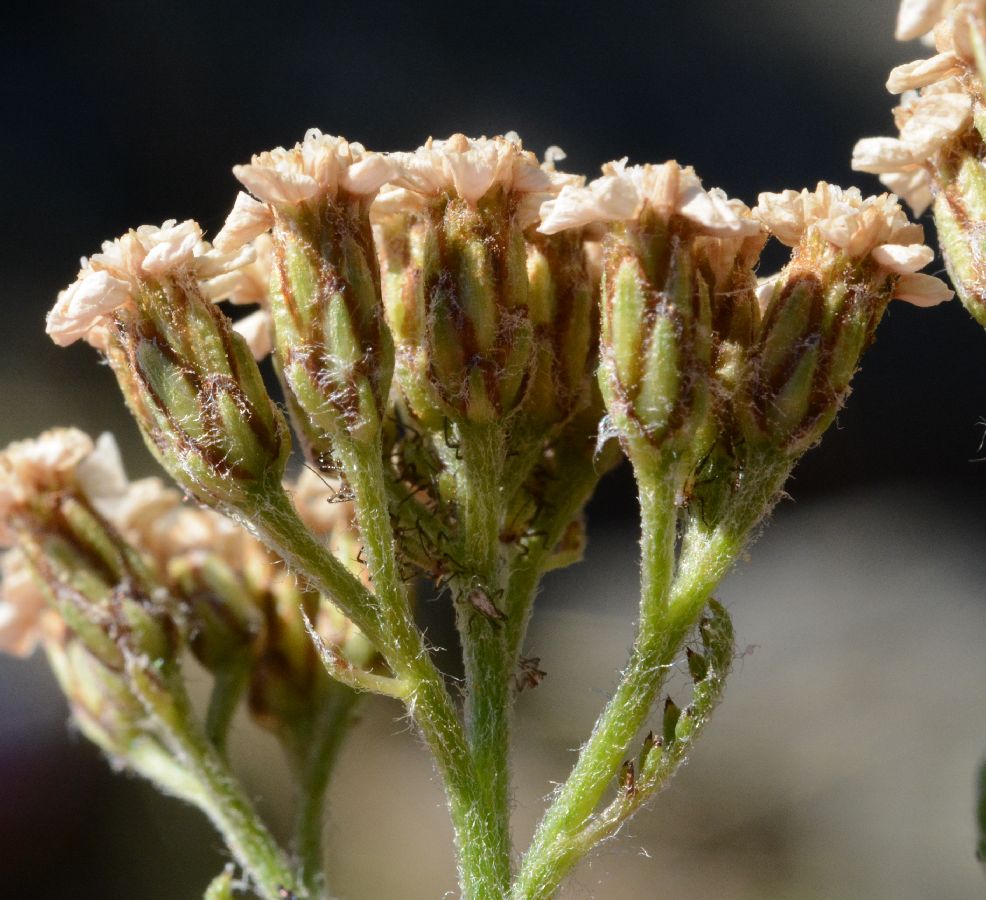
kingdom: Plantae
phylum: Tracheophyta
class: Magnoliopsida
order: Asterales
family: Asteraceae
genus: Achillea
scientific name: Achillea apiculata
